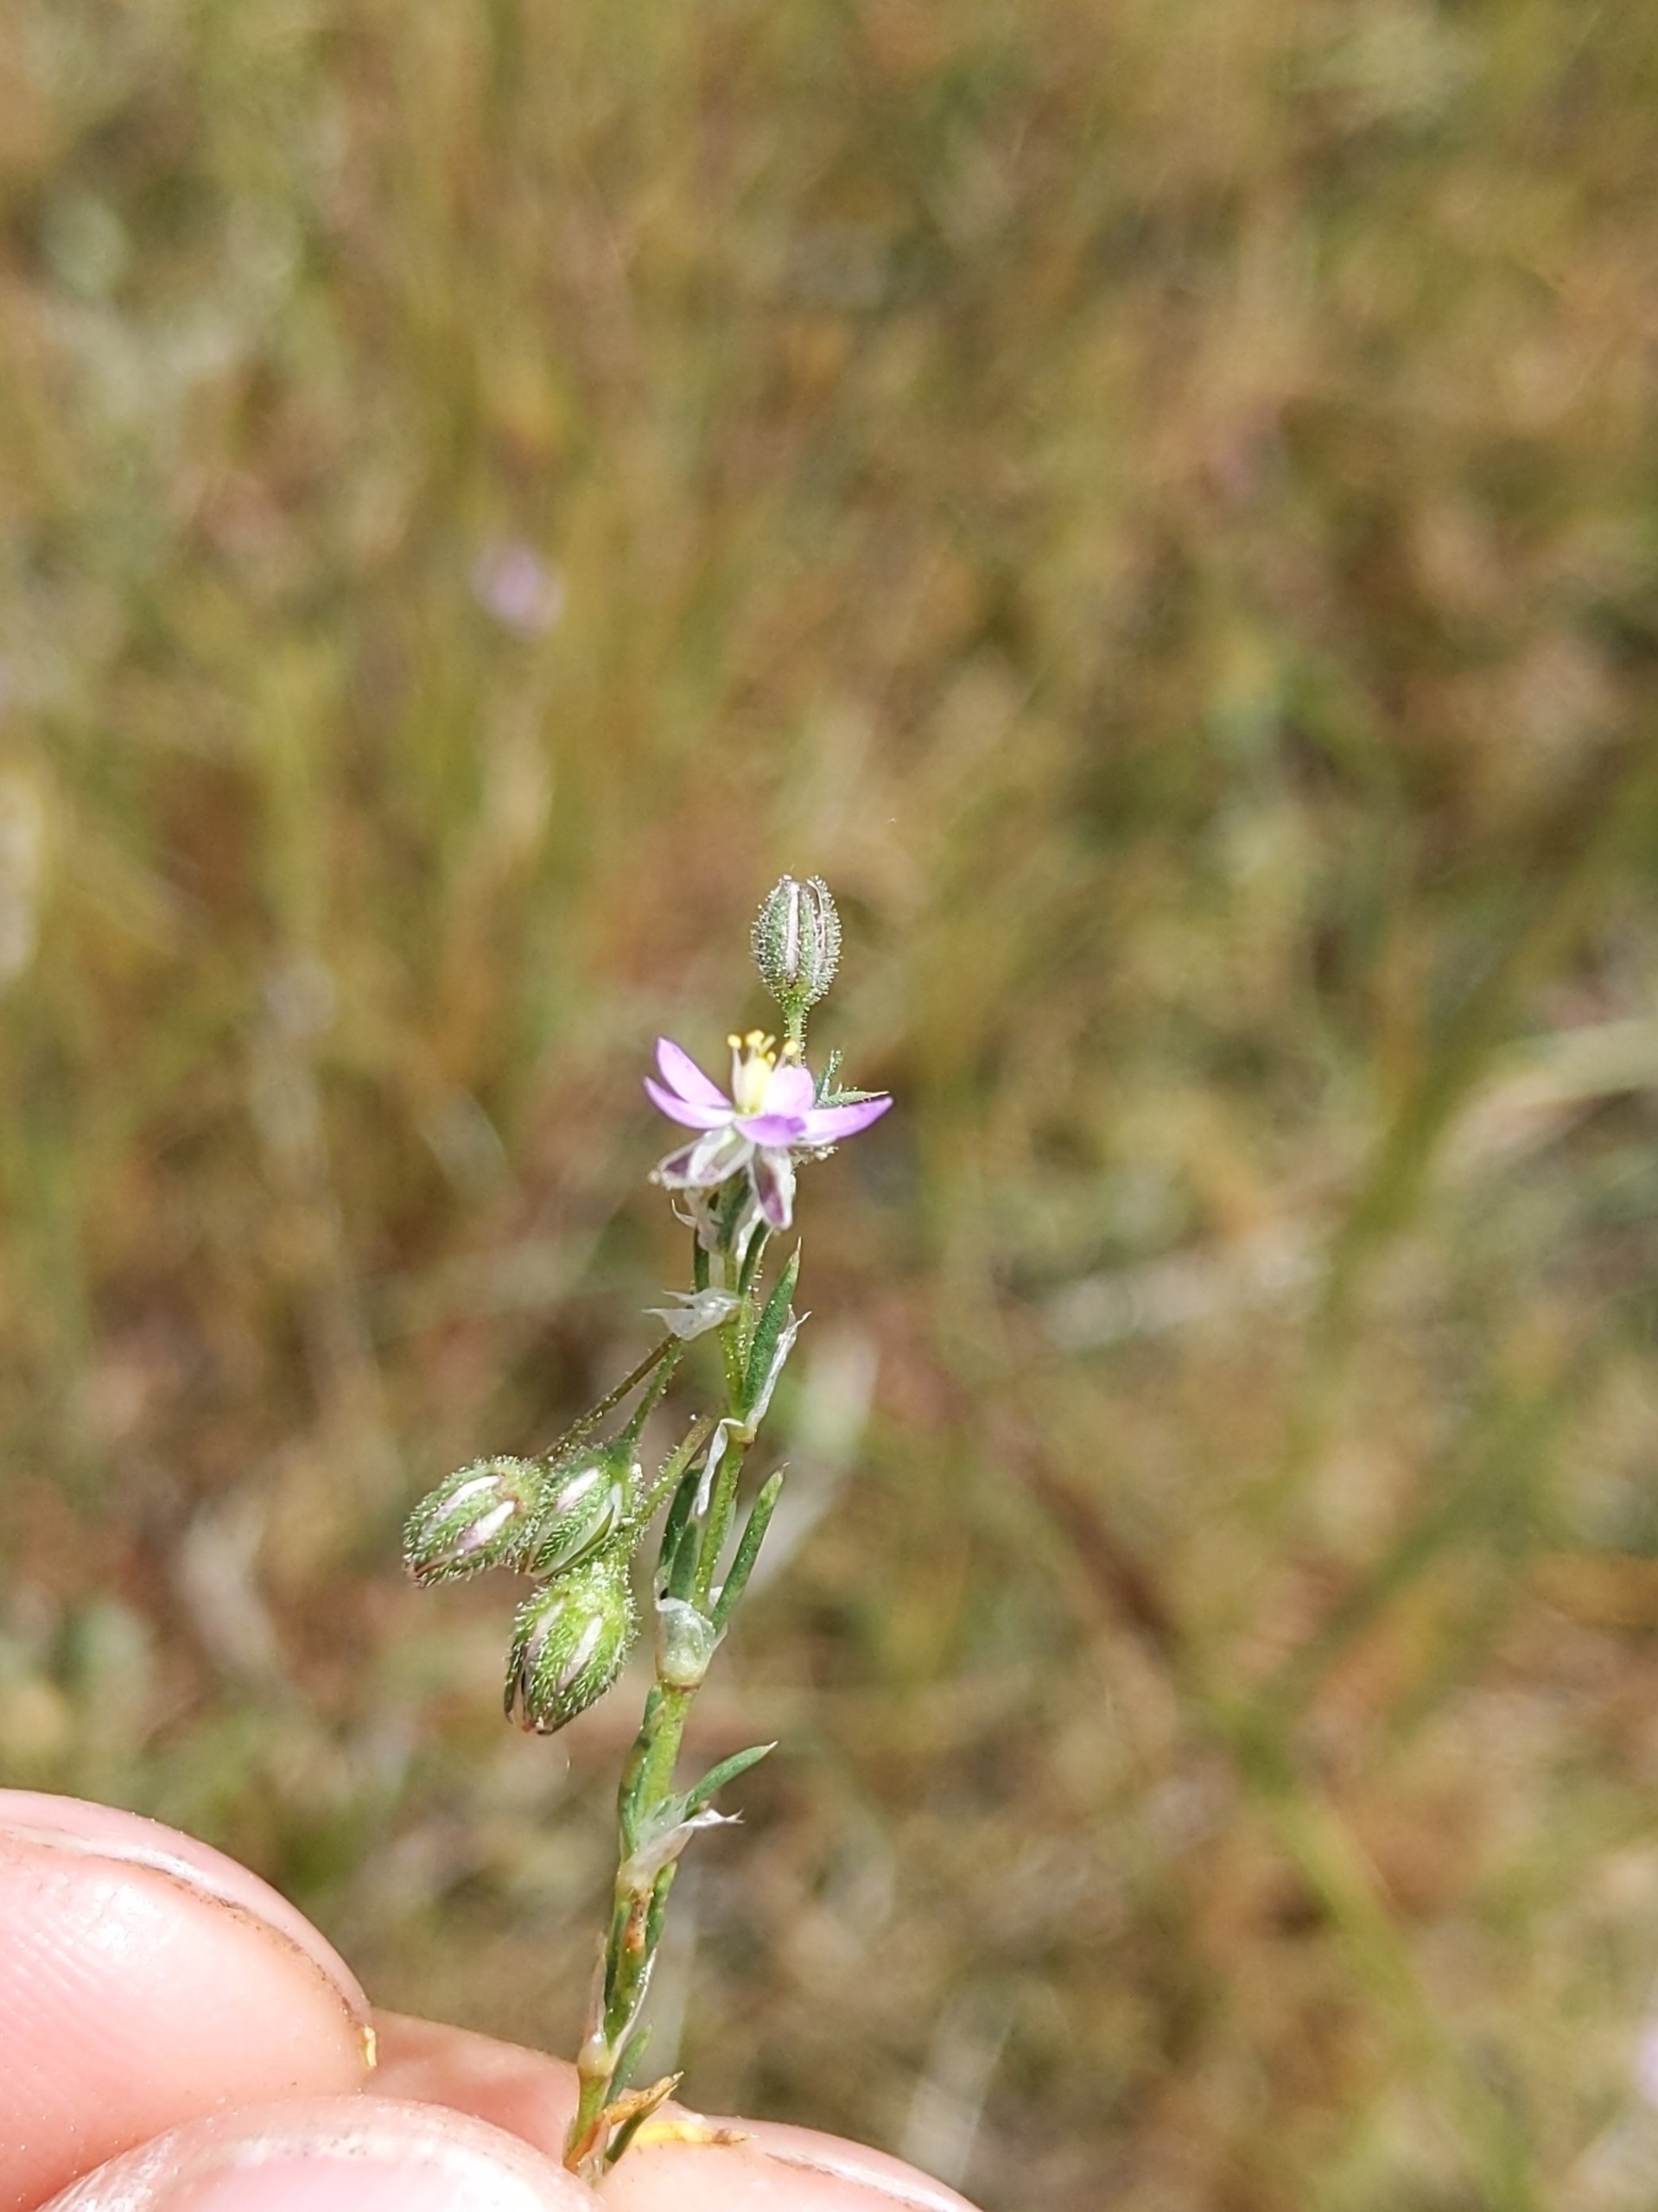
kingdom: Plantae
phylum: Tracheophyta
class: Magnoliopsida
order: Caryophyllales
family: Caryophyllaceae
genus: Spergularia
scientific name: Spergularia rubra
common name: Mark-hindeknæ
